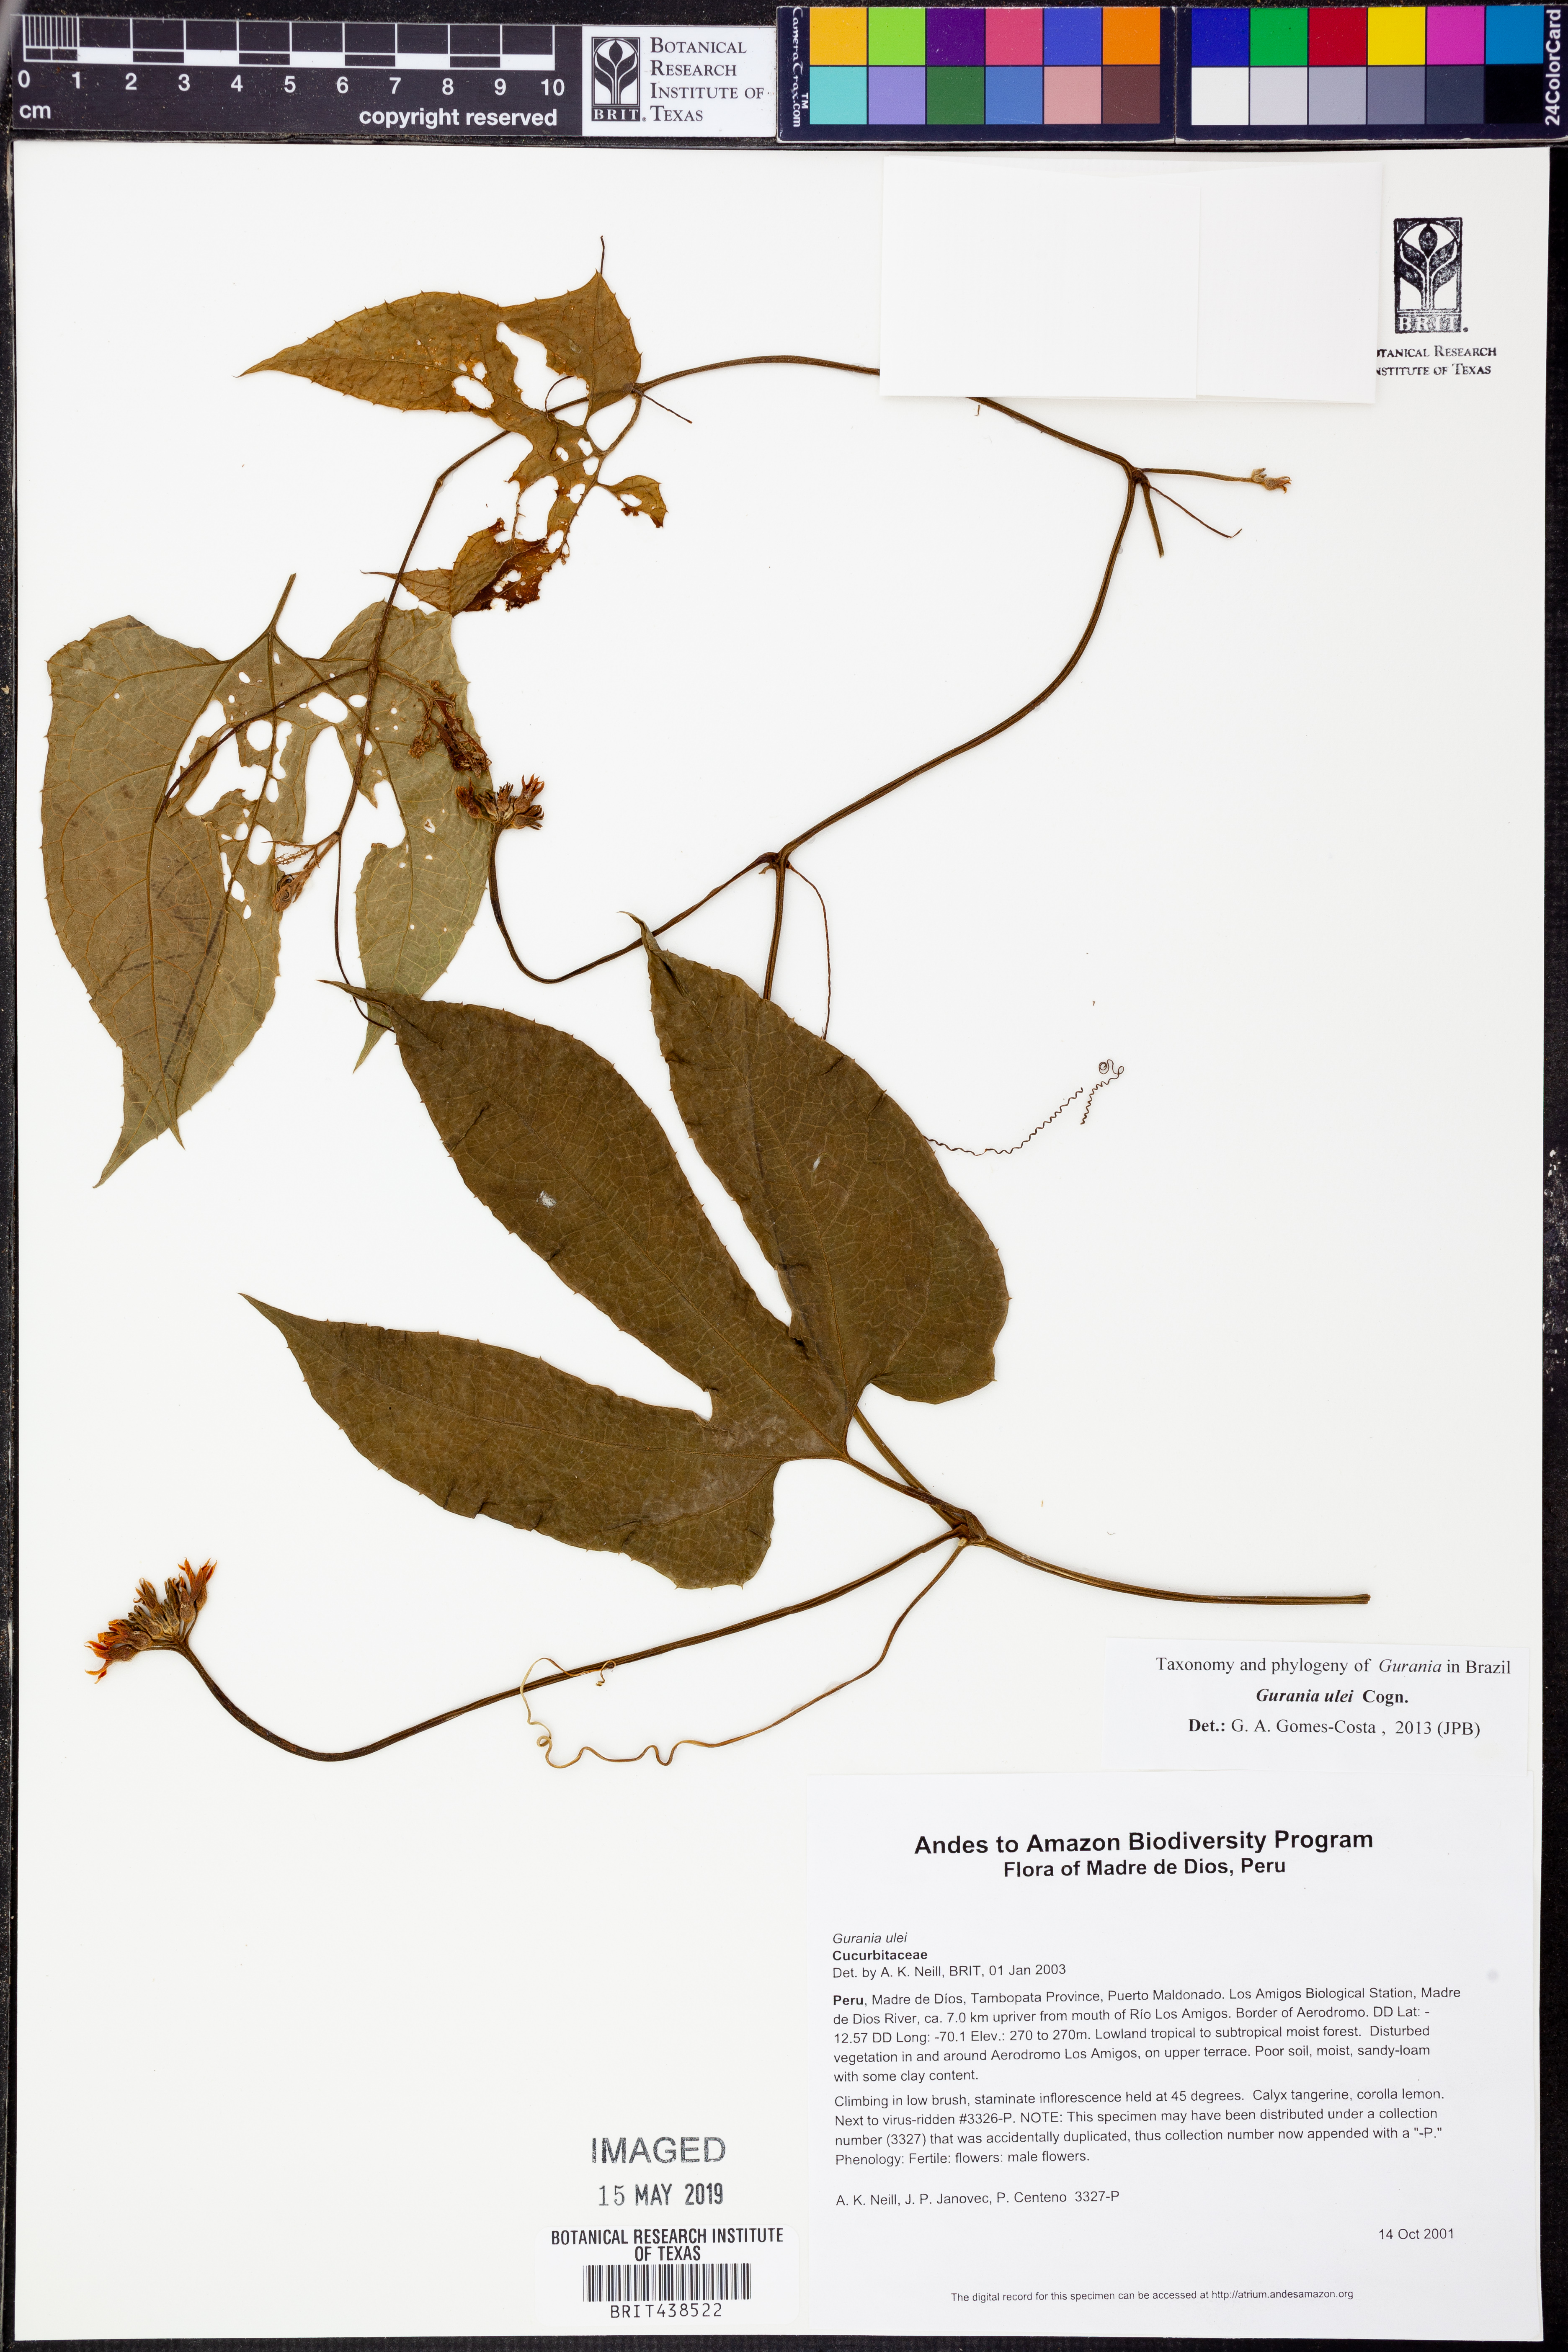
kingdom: Plantae
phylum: Tracheophyta
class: Magnoliopsida
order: Cucurbitales
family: Cucurbitaceae
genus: Gurania
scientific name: Gurania
